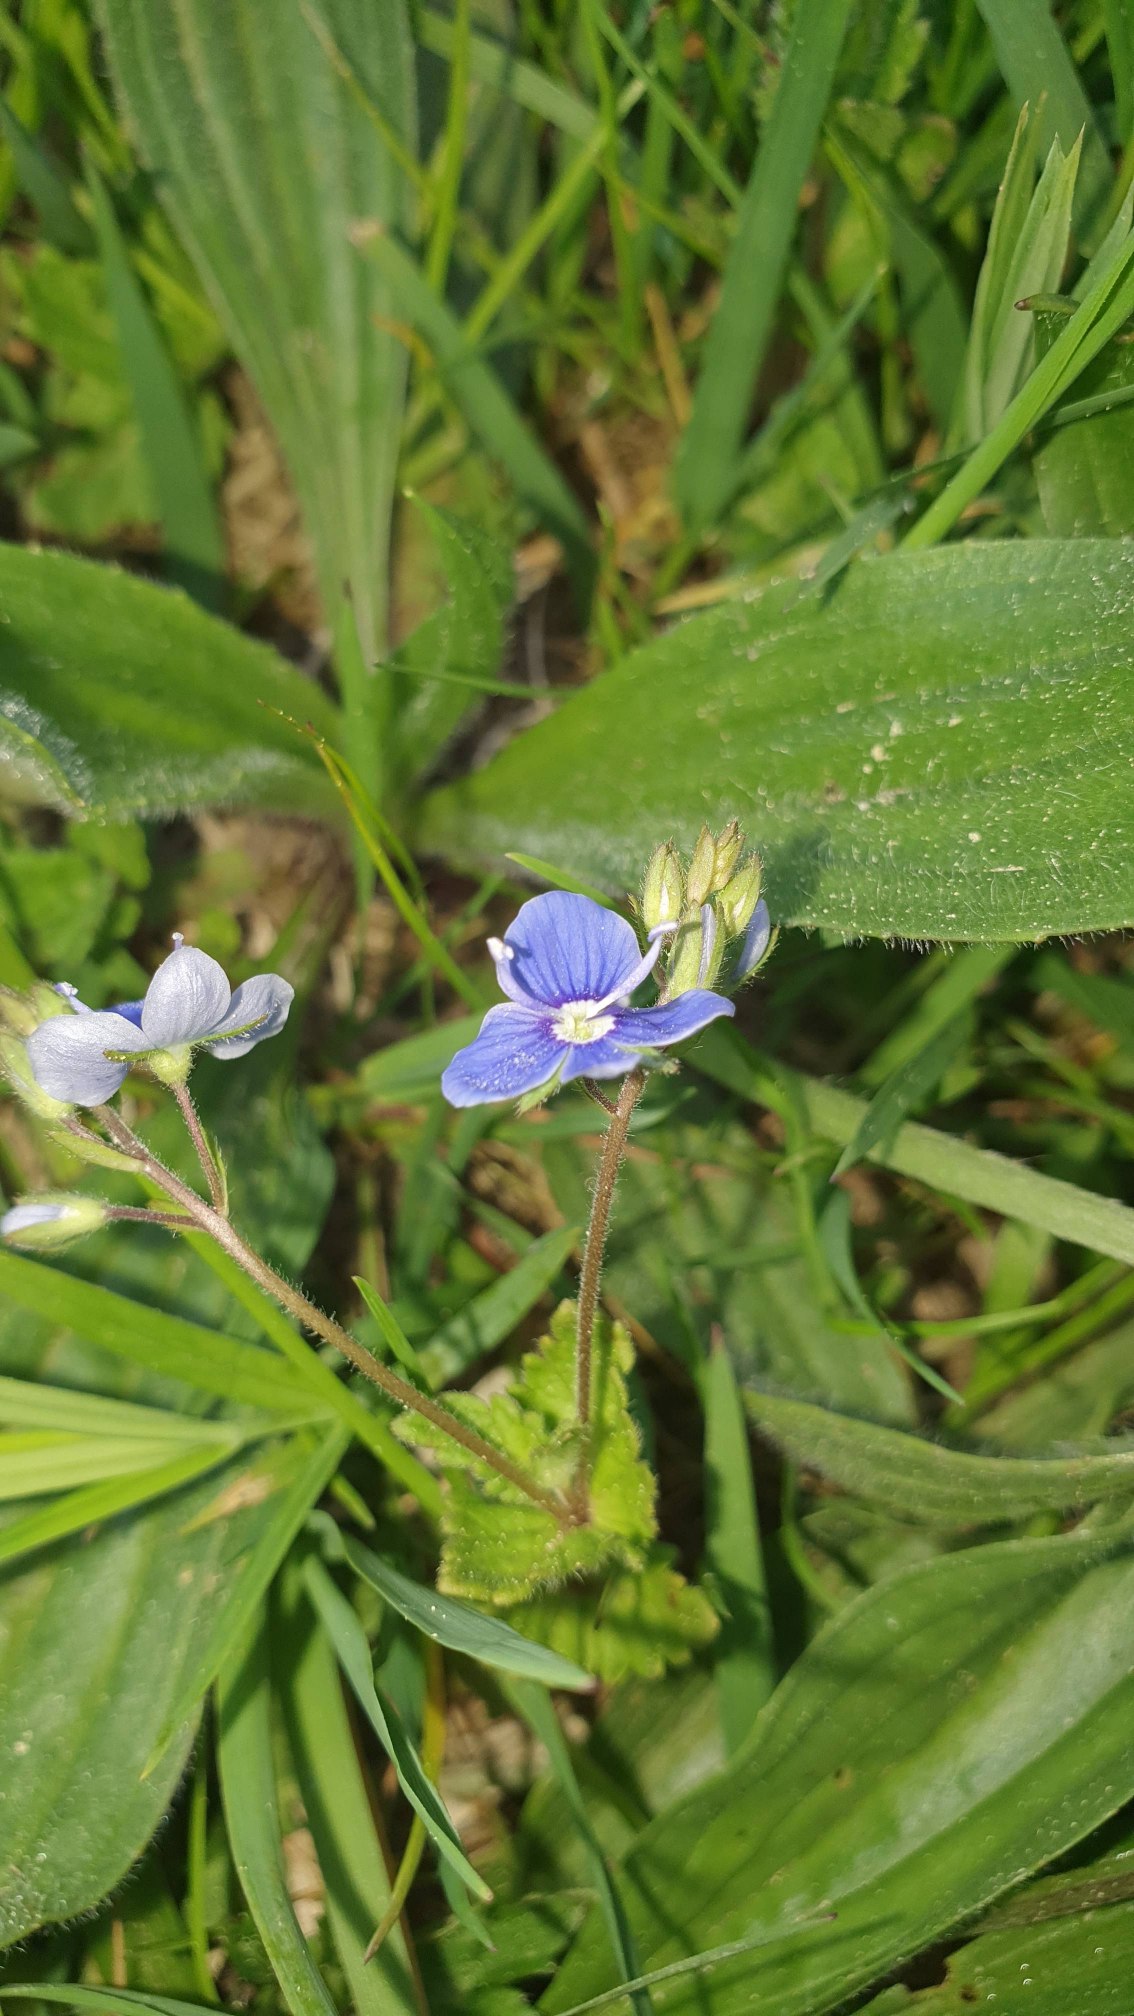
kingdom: Plantae
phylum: Tracheophyta
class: Magnoliopsida
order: Lamiales
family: Plantaginaceae
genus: Veronica
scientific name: Veronica chamaedrys
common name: Tveskægget ærenpris
